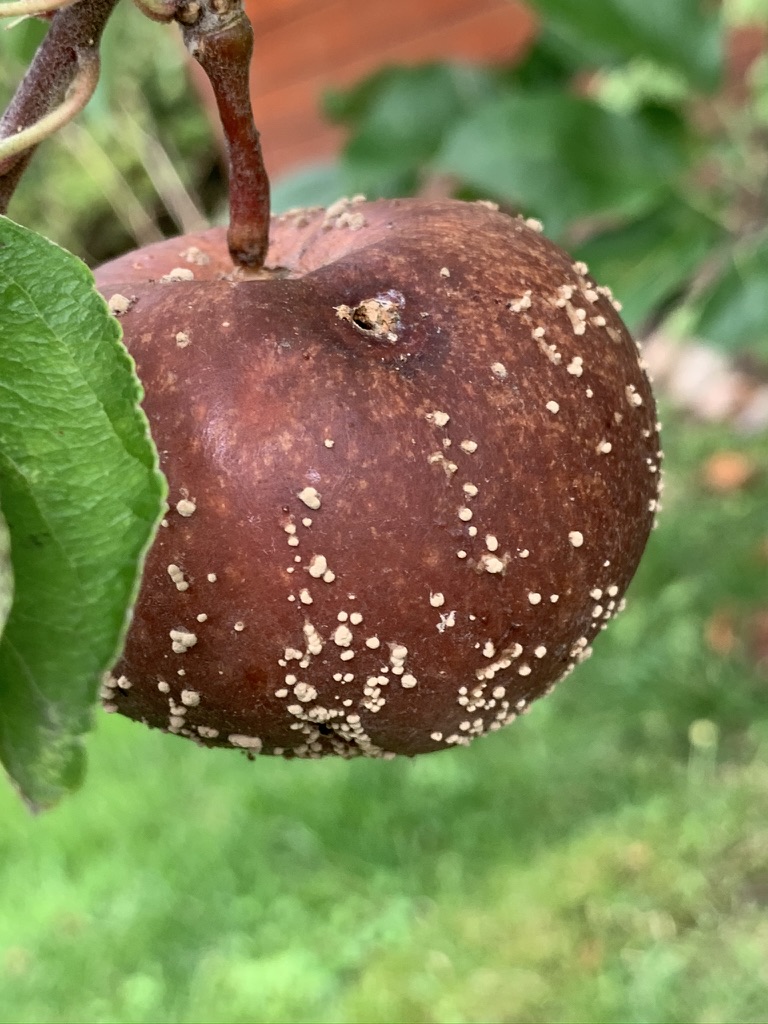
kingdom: Fungi
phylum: Ascomycota
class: Leotiomycetes
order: Helotiales
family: Sclerotiniaceae
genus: Monilinia
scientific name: Monilinia fructigena
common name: æble-knoldskive
